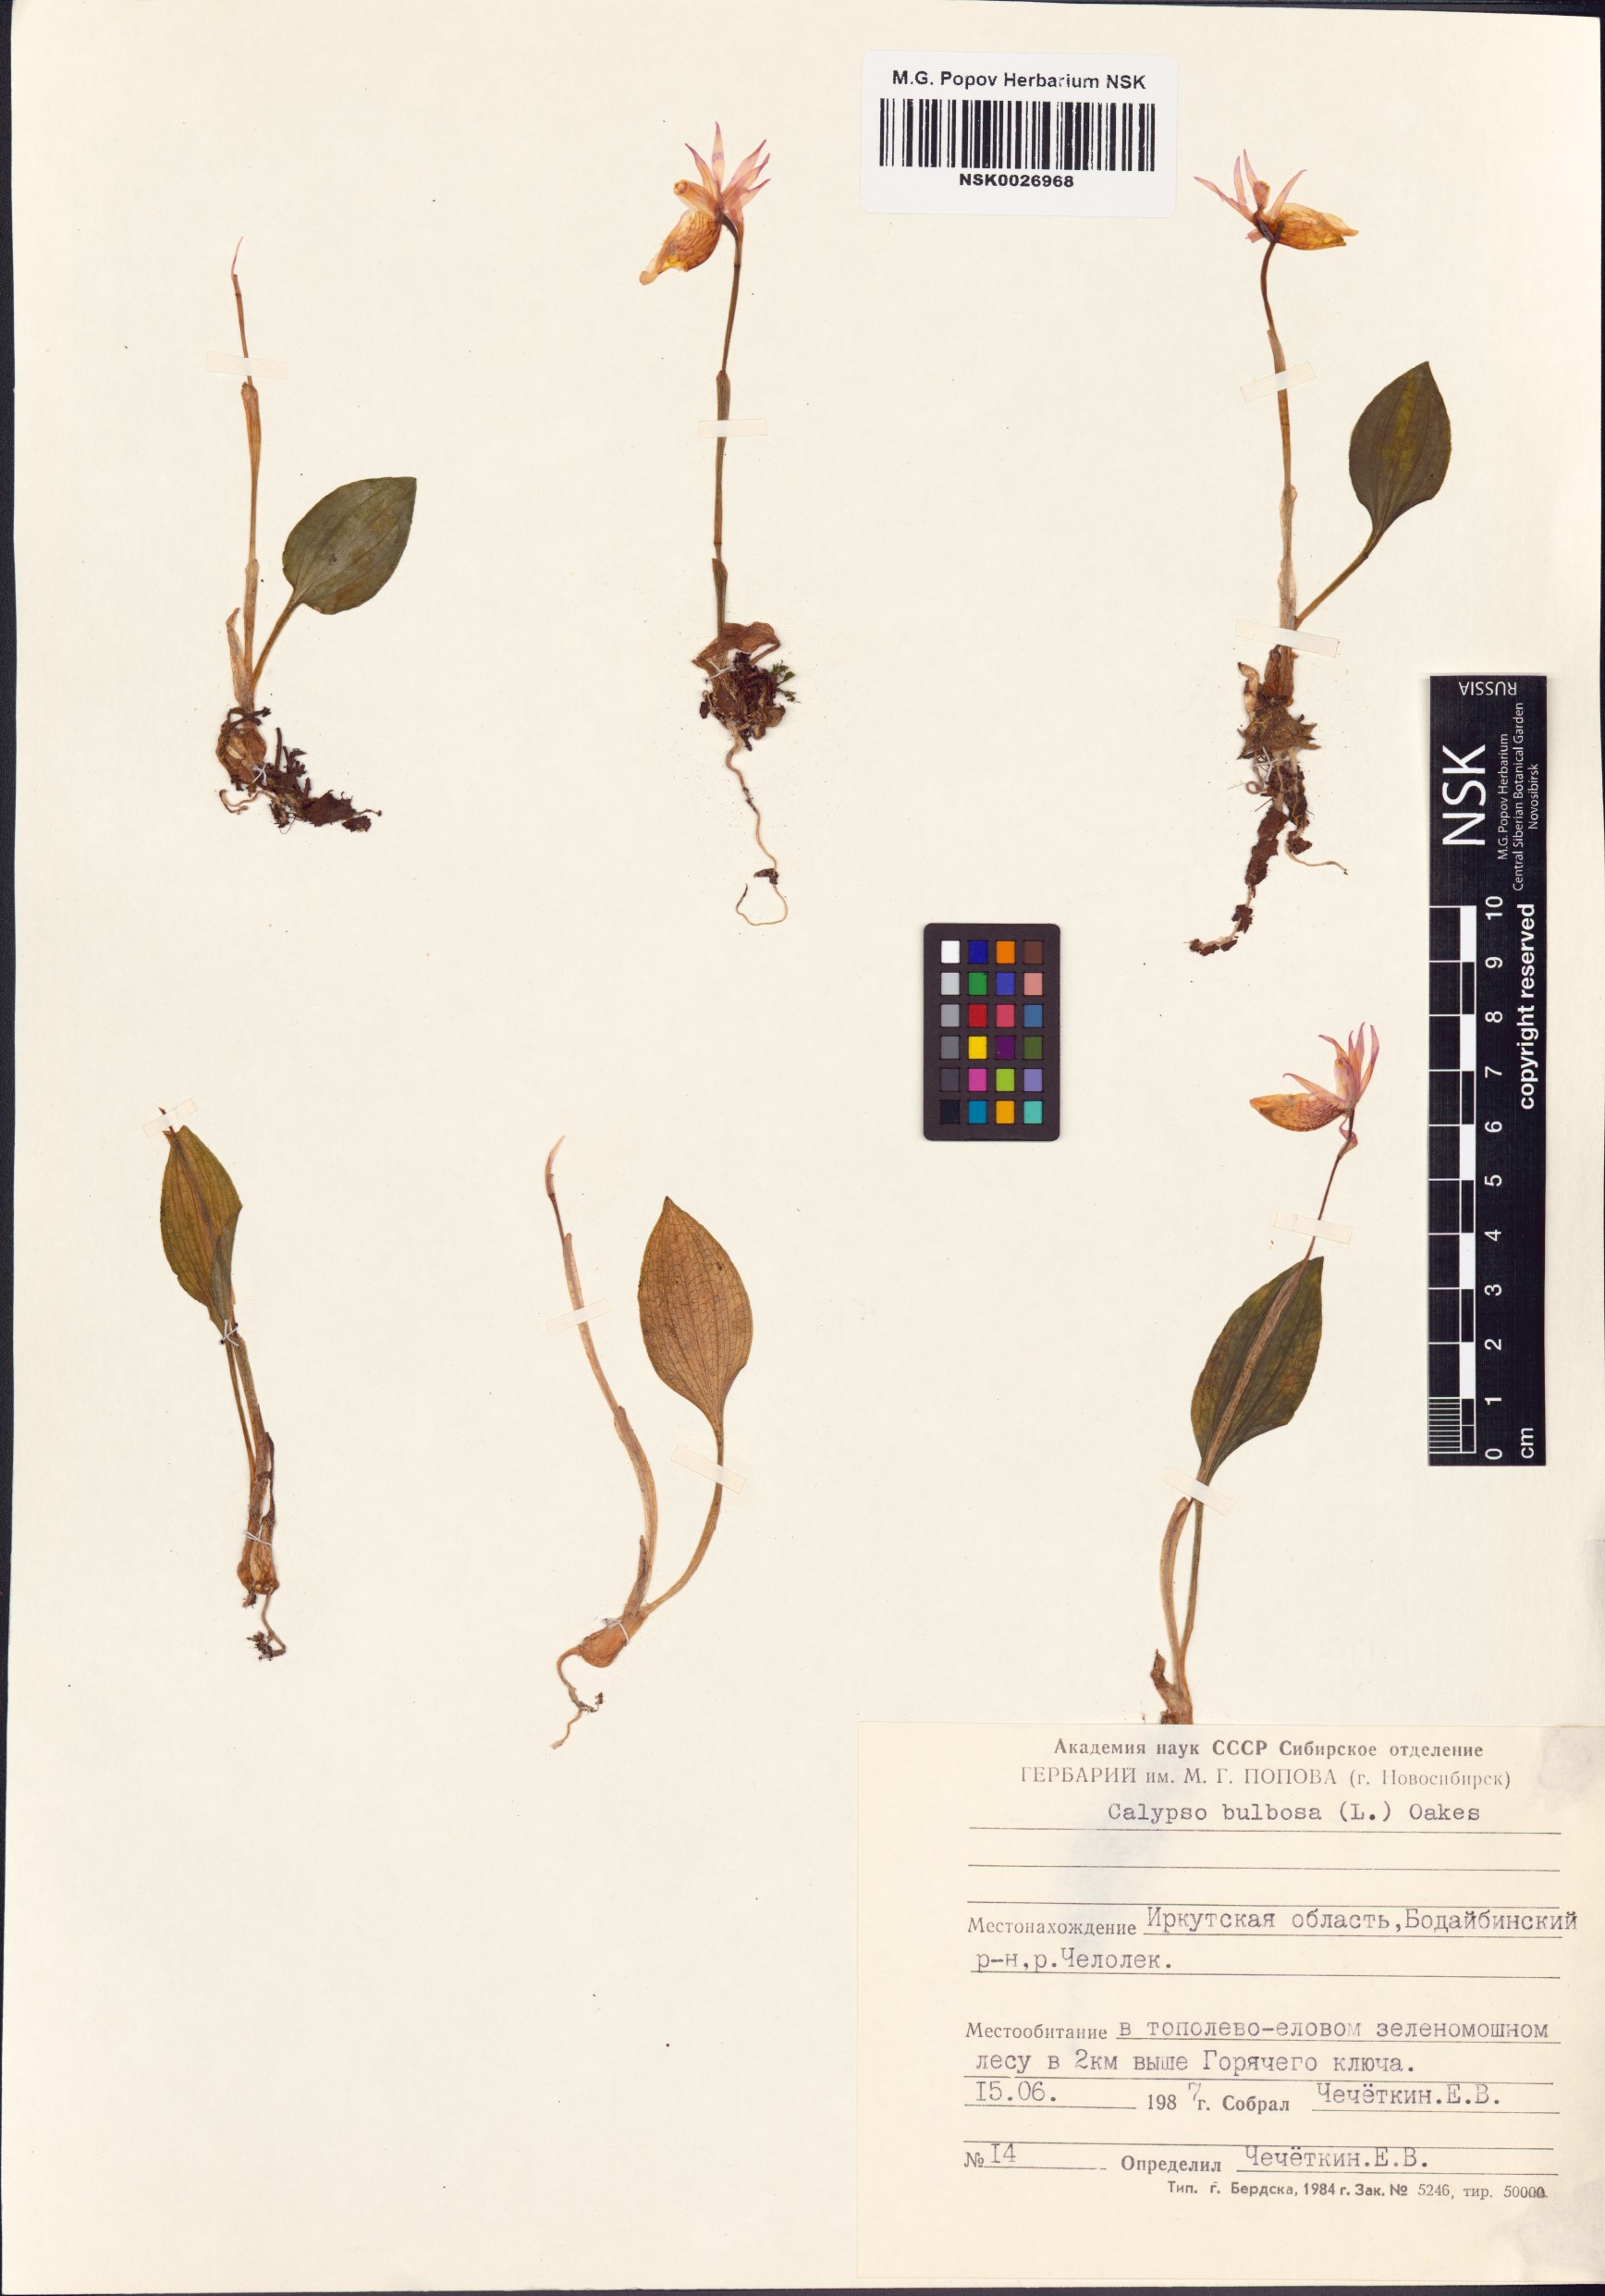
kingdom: Plantae
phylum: Tracheophyta
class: Liliopsida
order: Asparagales
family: Orchidaceae
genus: Calypso
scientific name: Calypso bulbosa
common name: Calypso
